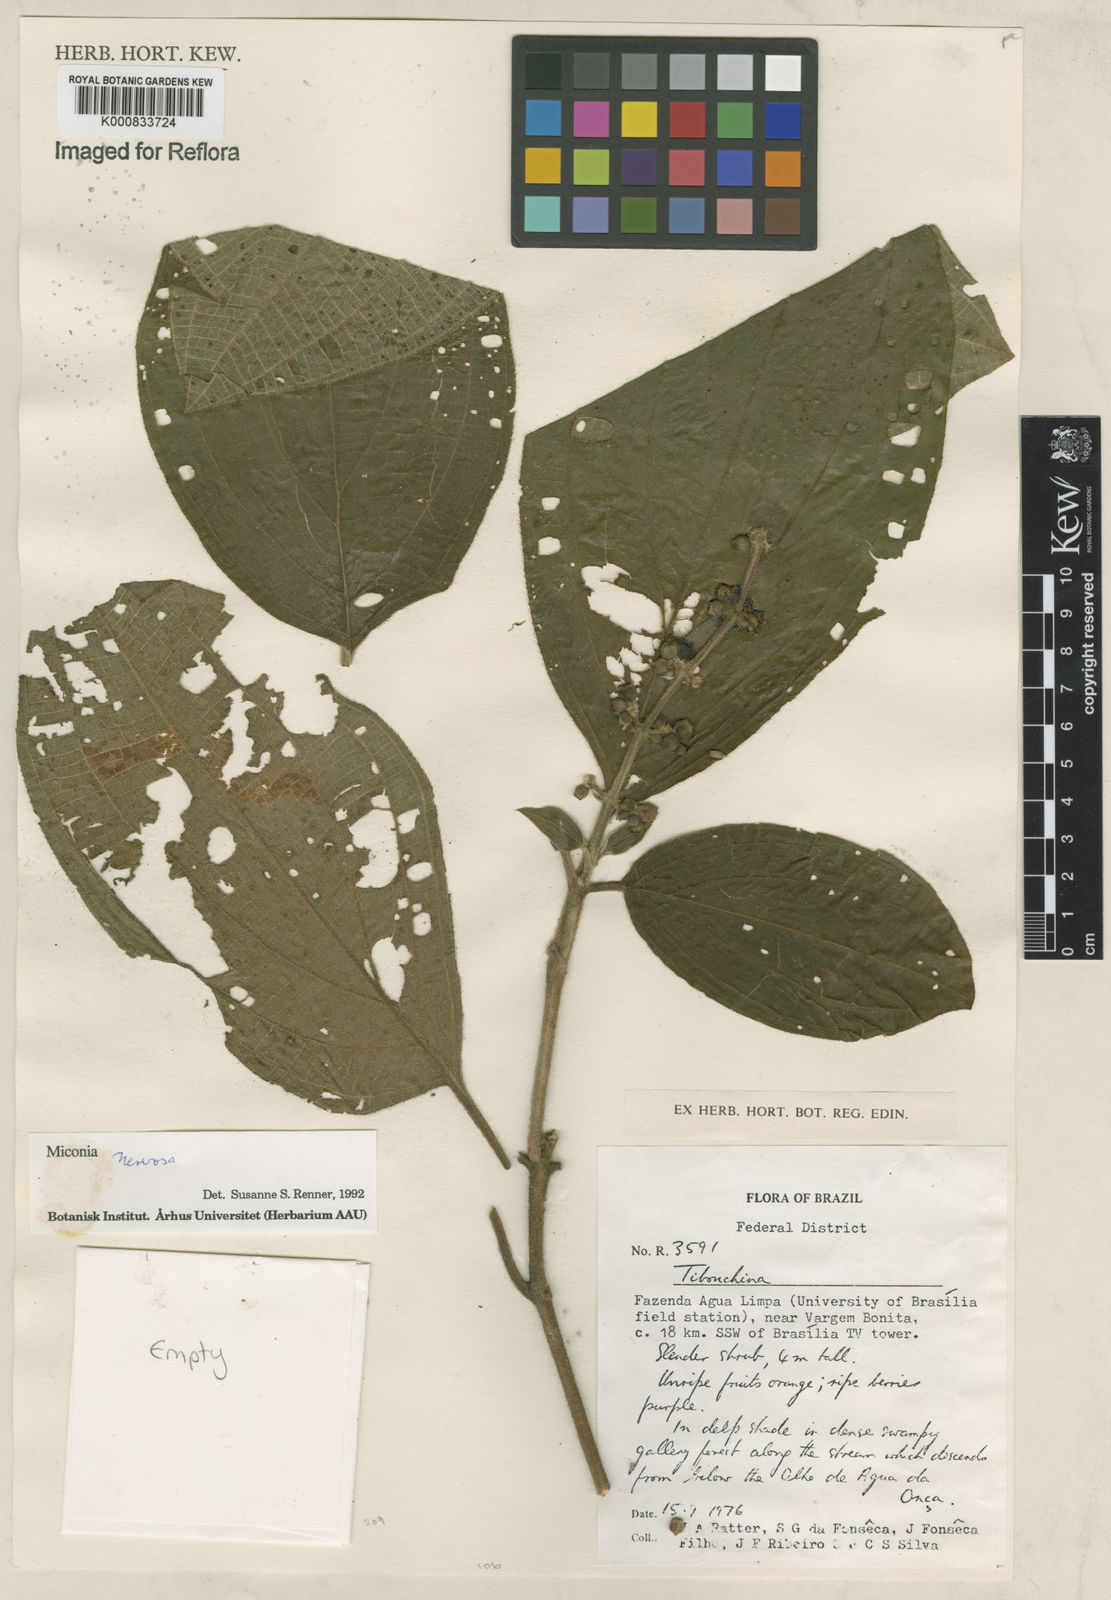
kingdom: Plantae
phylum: Tracheophyta
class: Magnoliopsida
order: Myrtales
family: Melastomataceae
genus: Miconia
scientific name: Miconia nervosa
